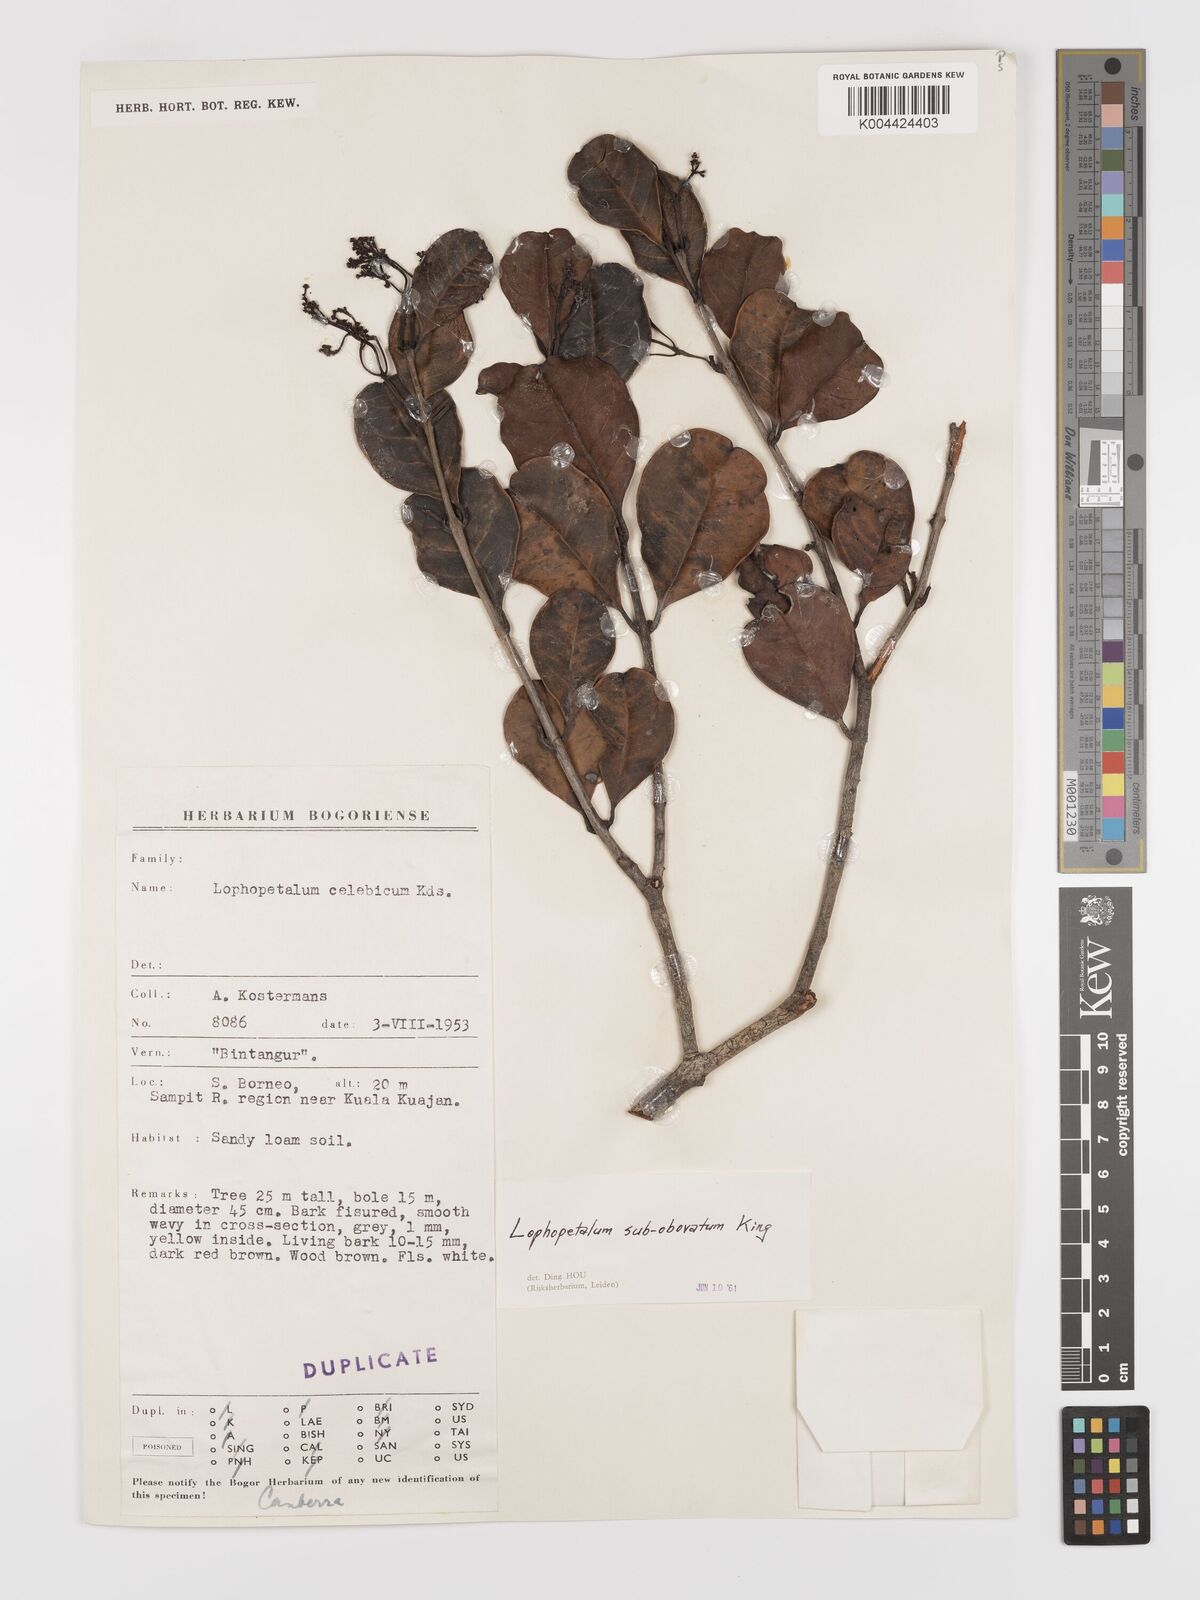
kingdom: Plantae
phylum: Tracheophyta
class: Magnoliopsida
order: Celastrales
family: Celastraceae
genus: Lophopetalum
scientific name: Lophopetalum
